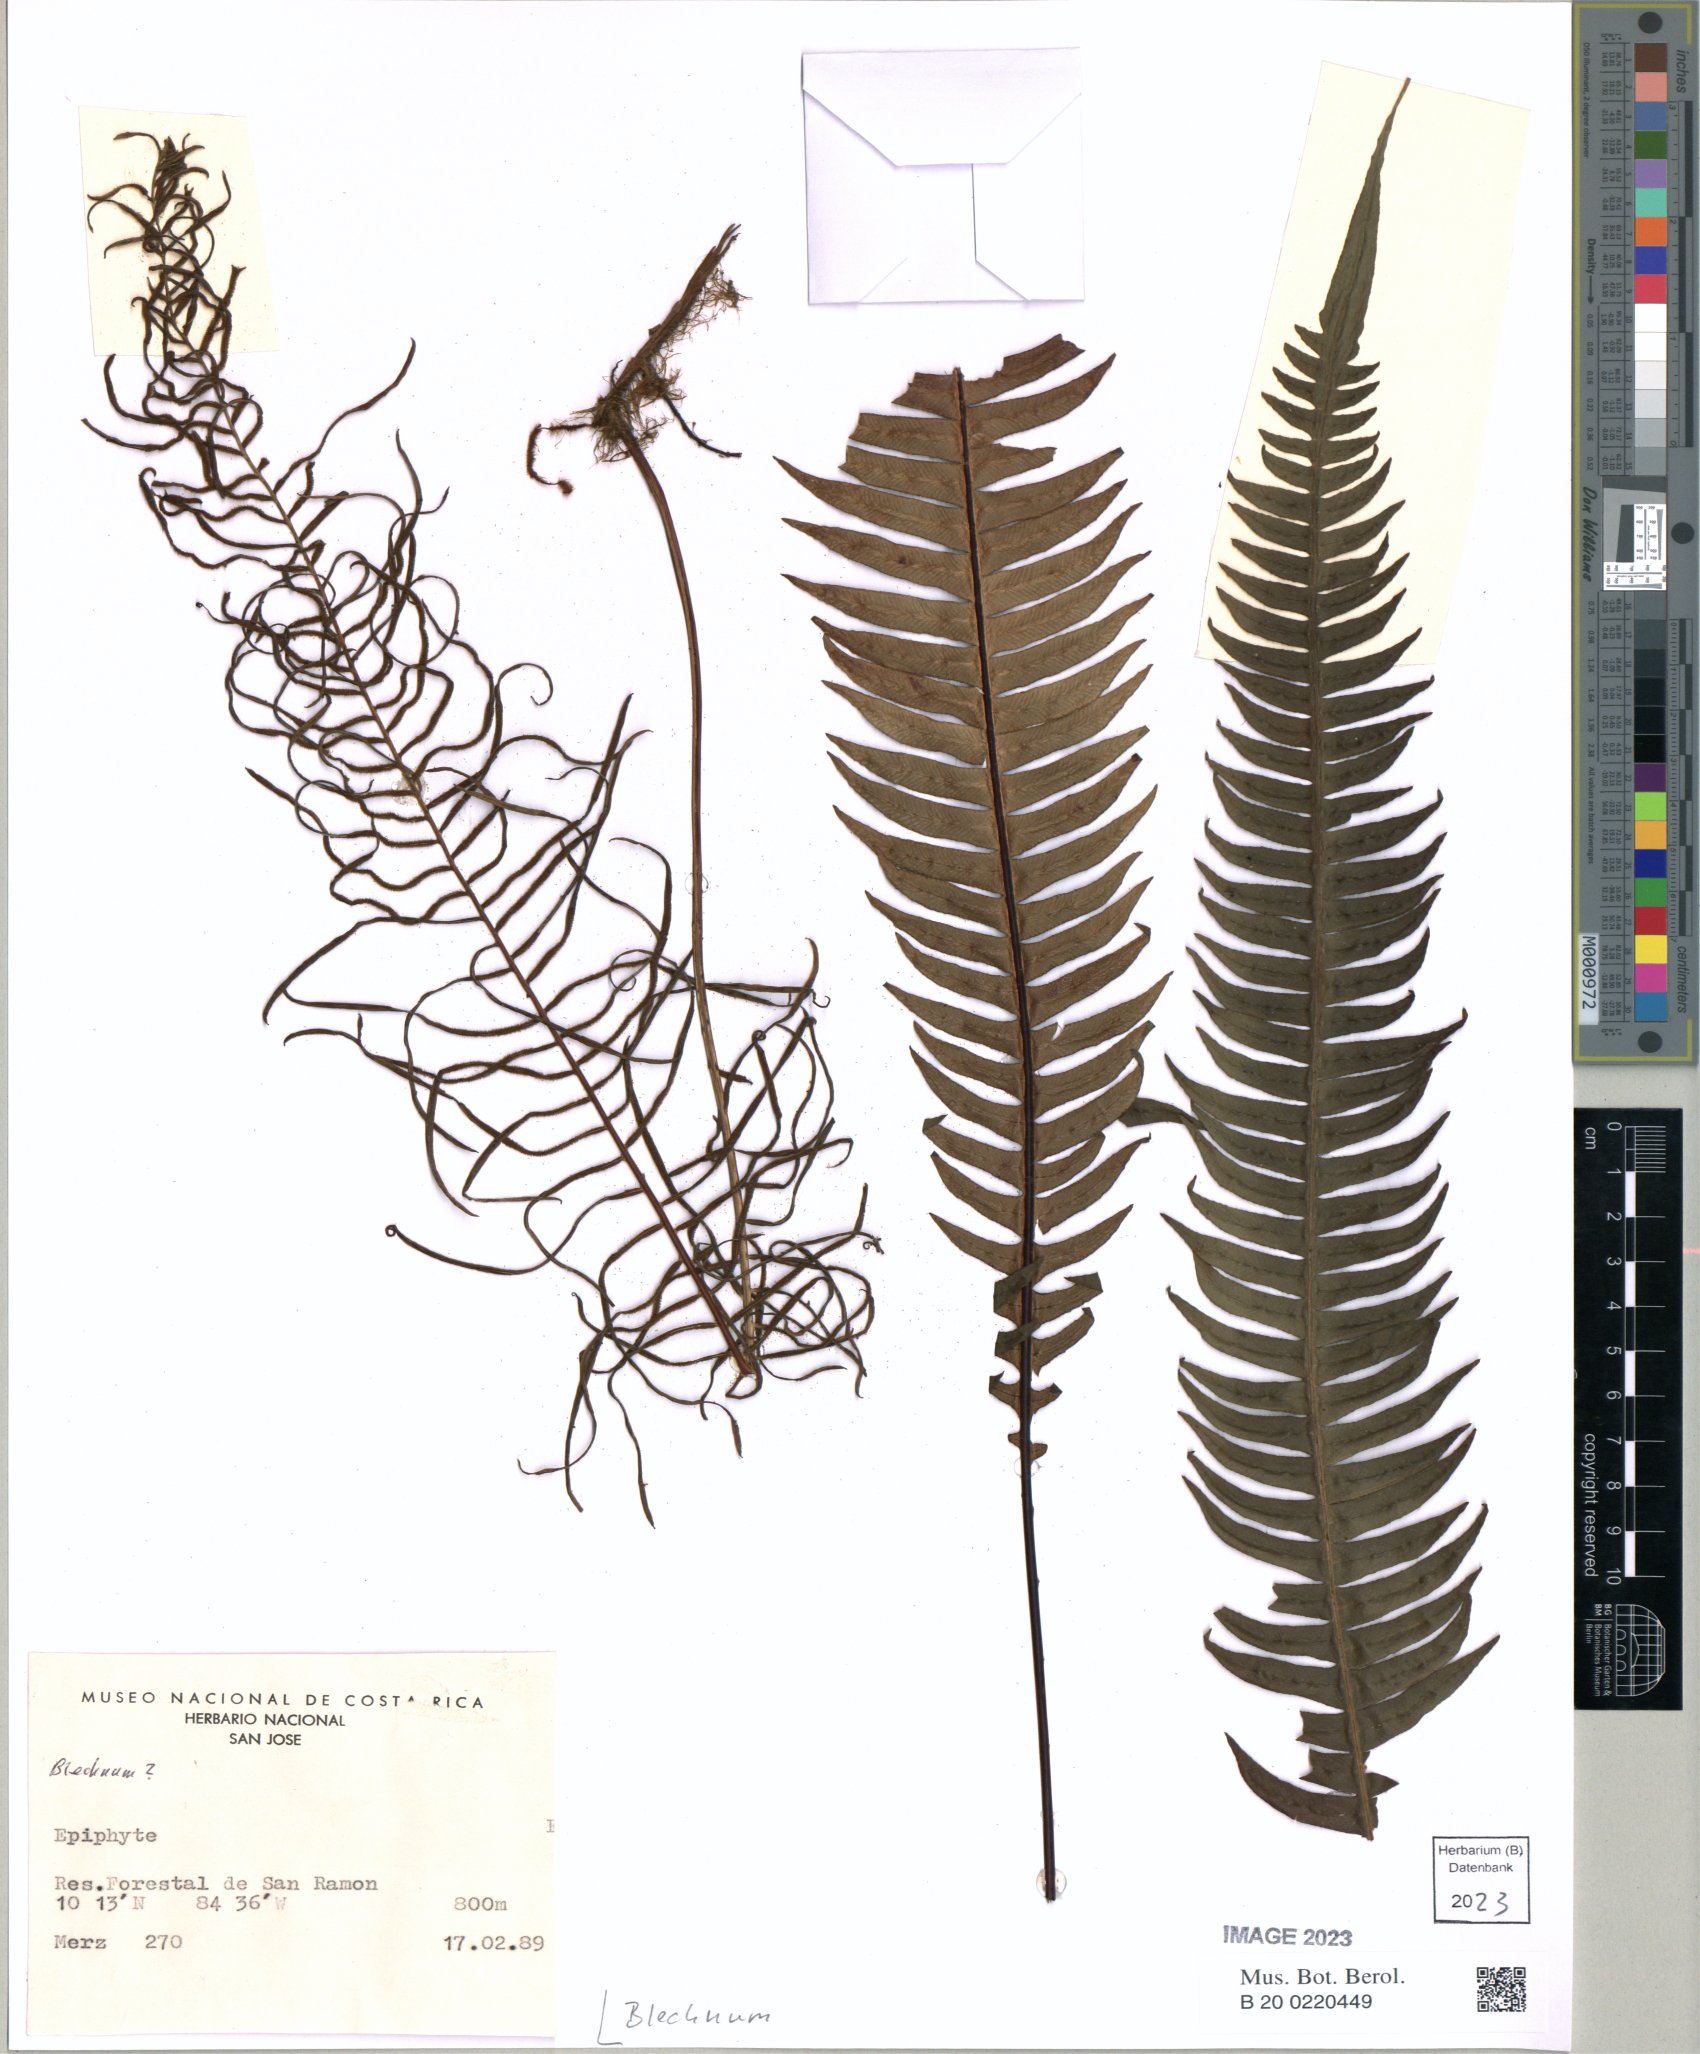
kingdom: Plantae
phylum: Tracheophyta
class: Polypodiopsida
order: Polypodiales
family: Blechnaceae
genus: Blechnum
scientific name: Blechnum
